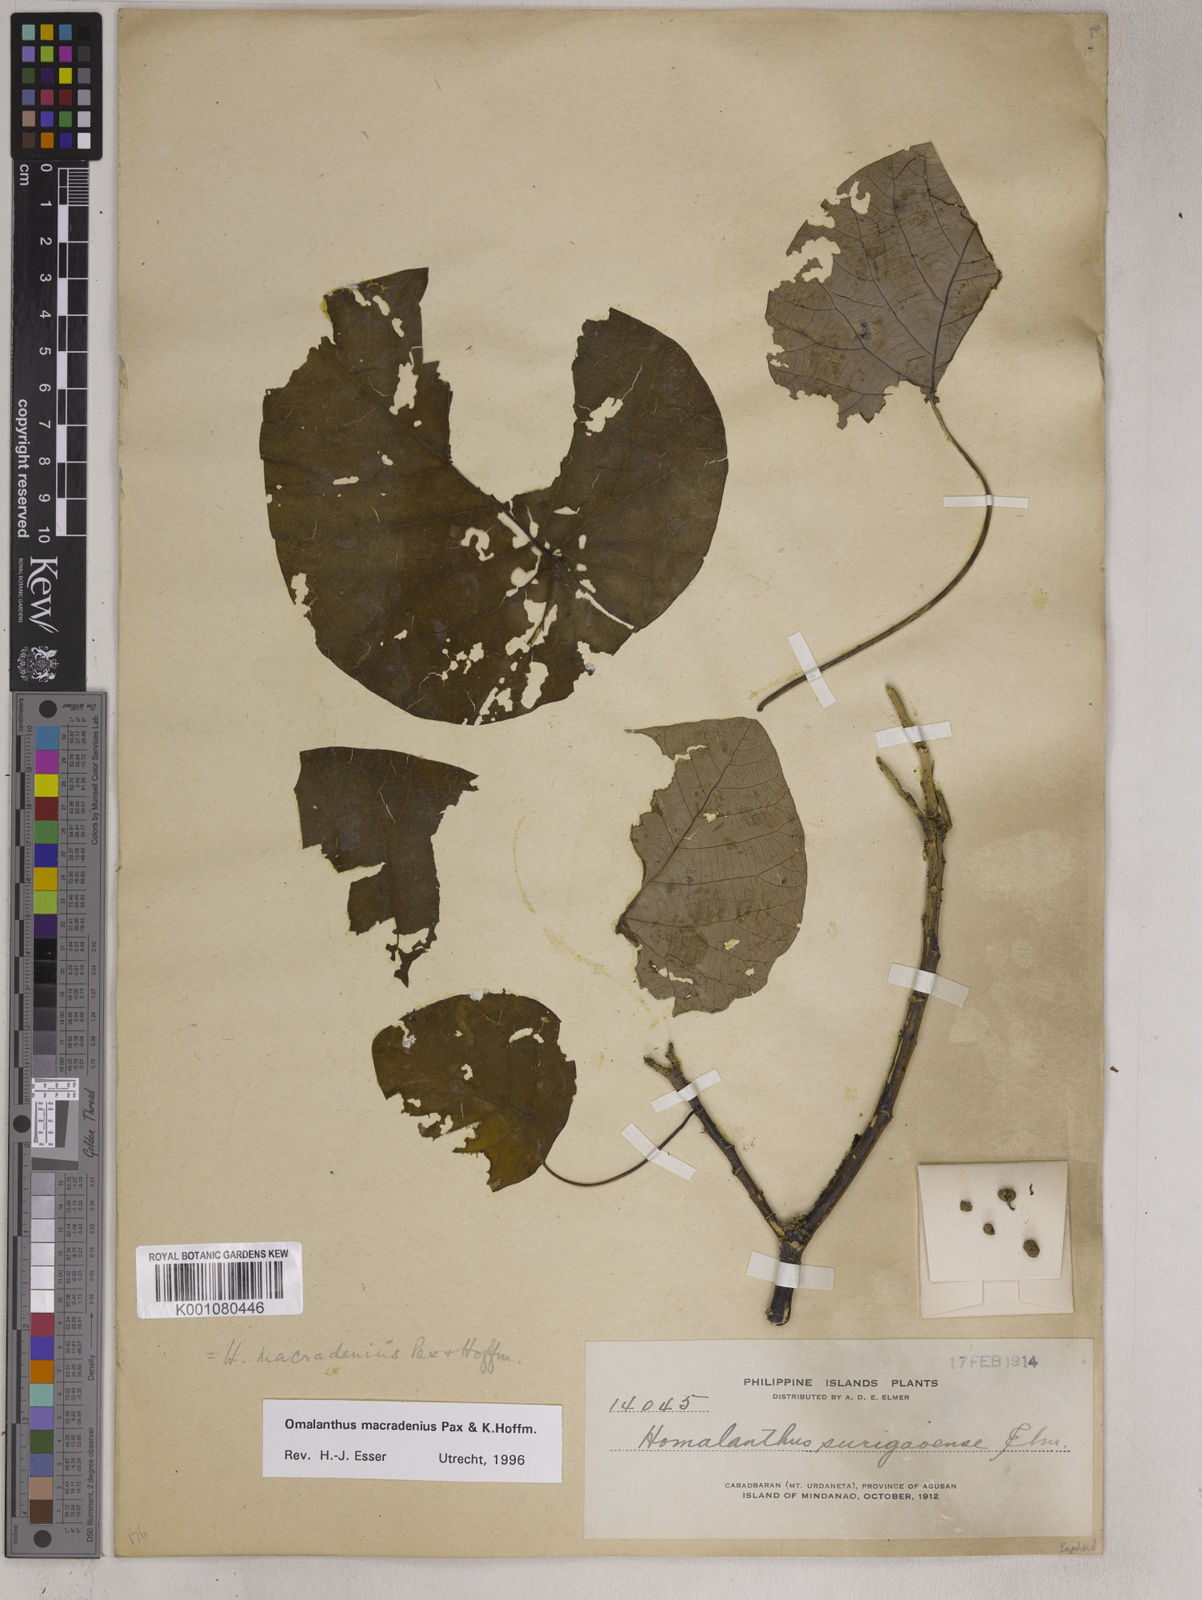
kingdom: Plantae
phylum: Tracheophyta
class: Magnoliopsida
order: Malpighiales
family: Euphorbiaceae
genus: Homalanthus
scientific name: Homalanthus macradenius
